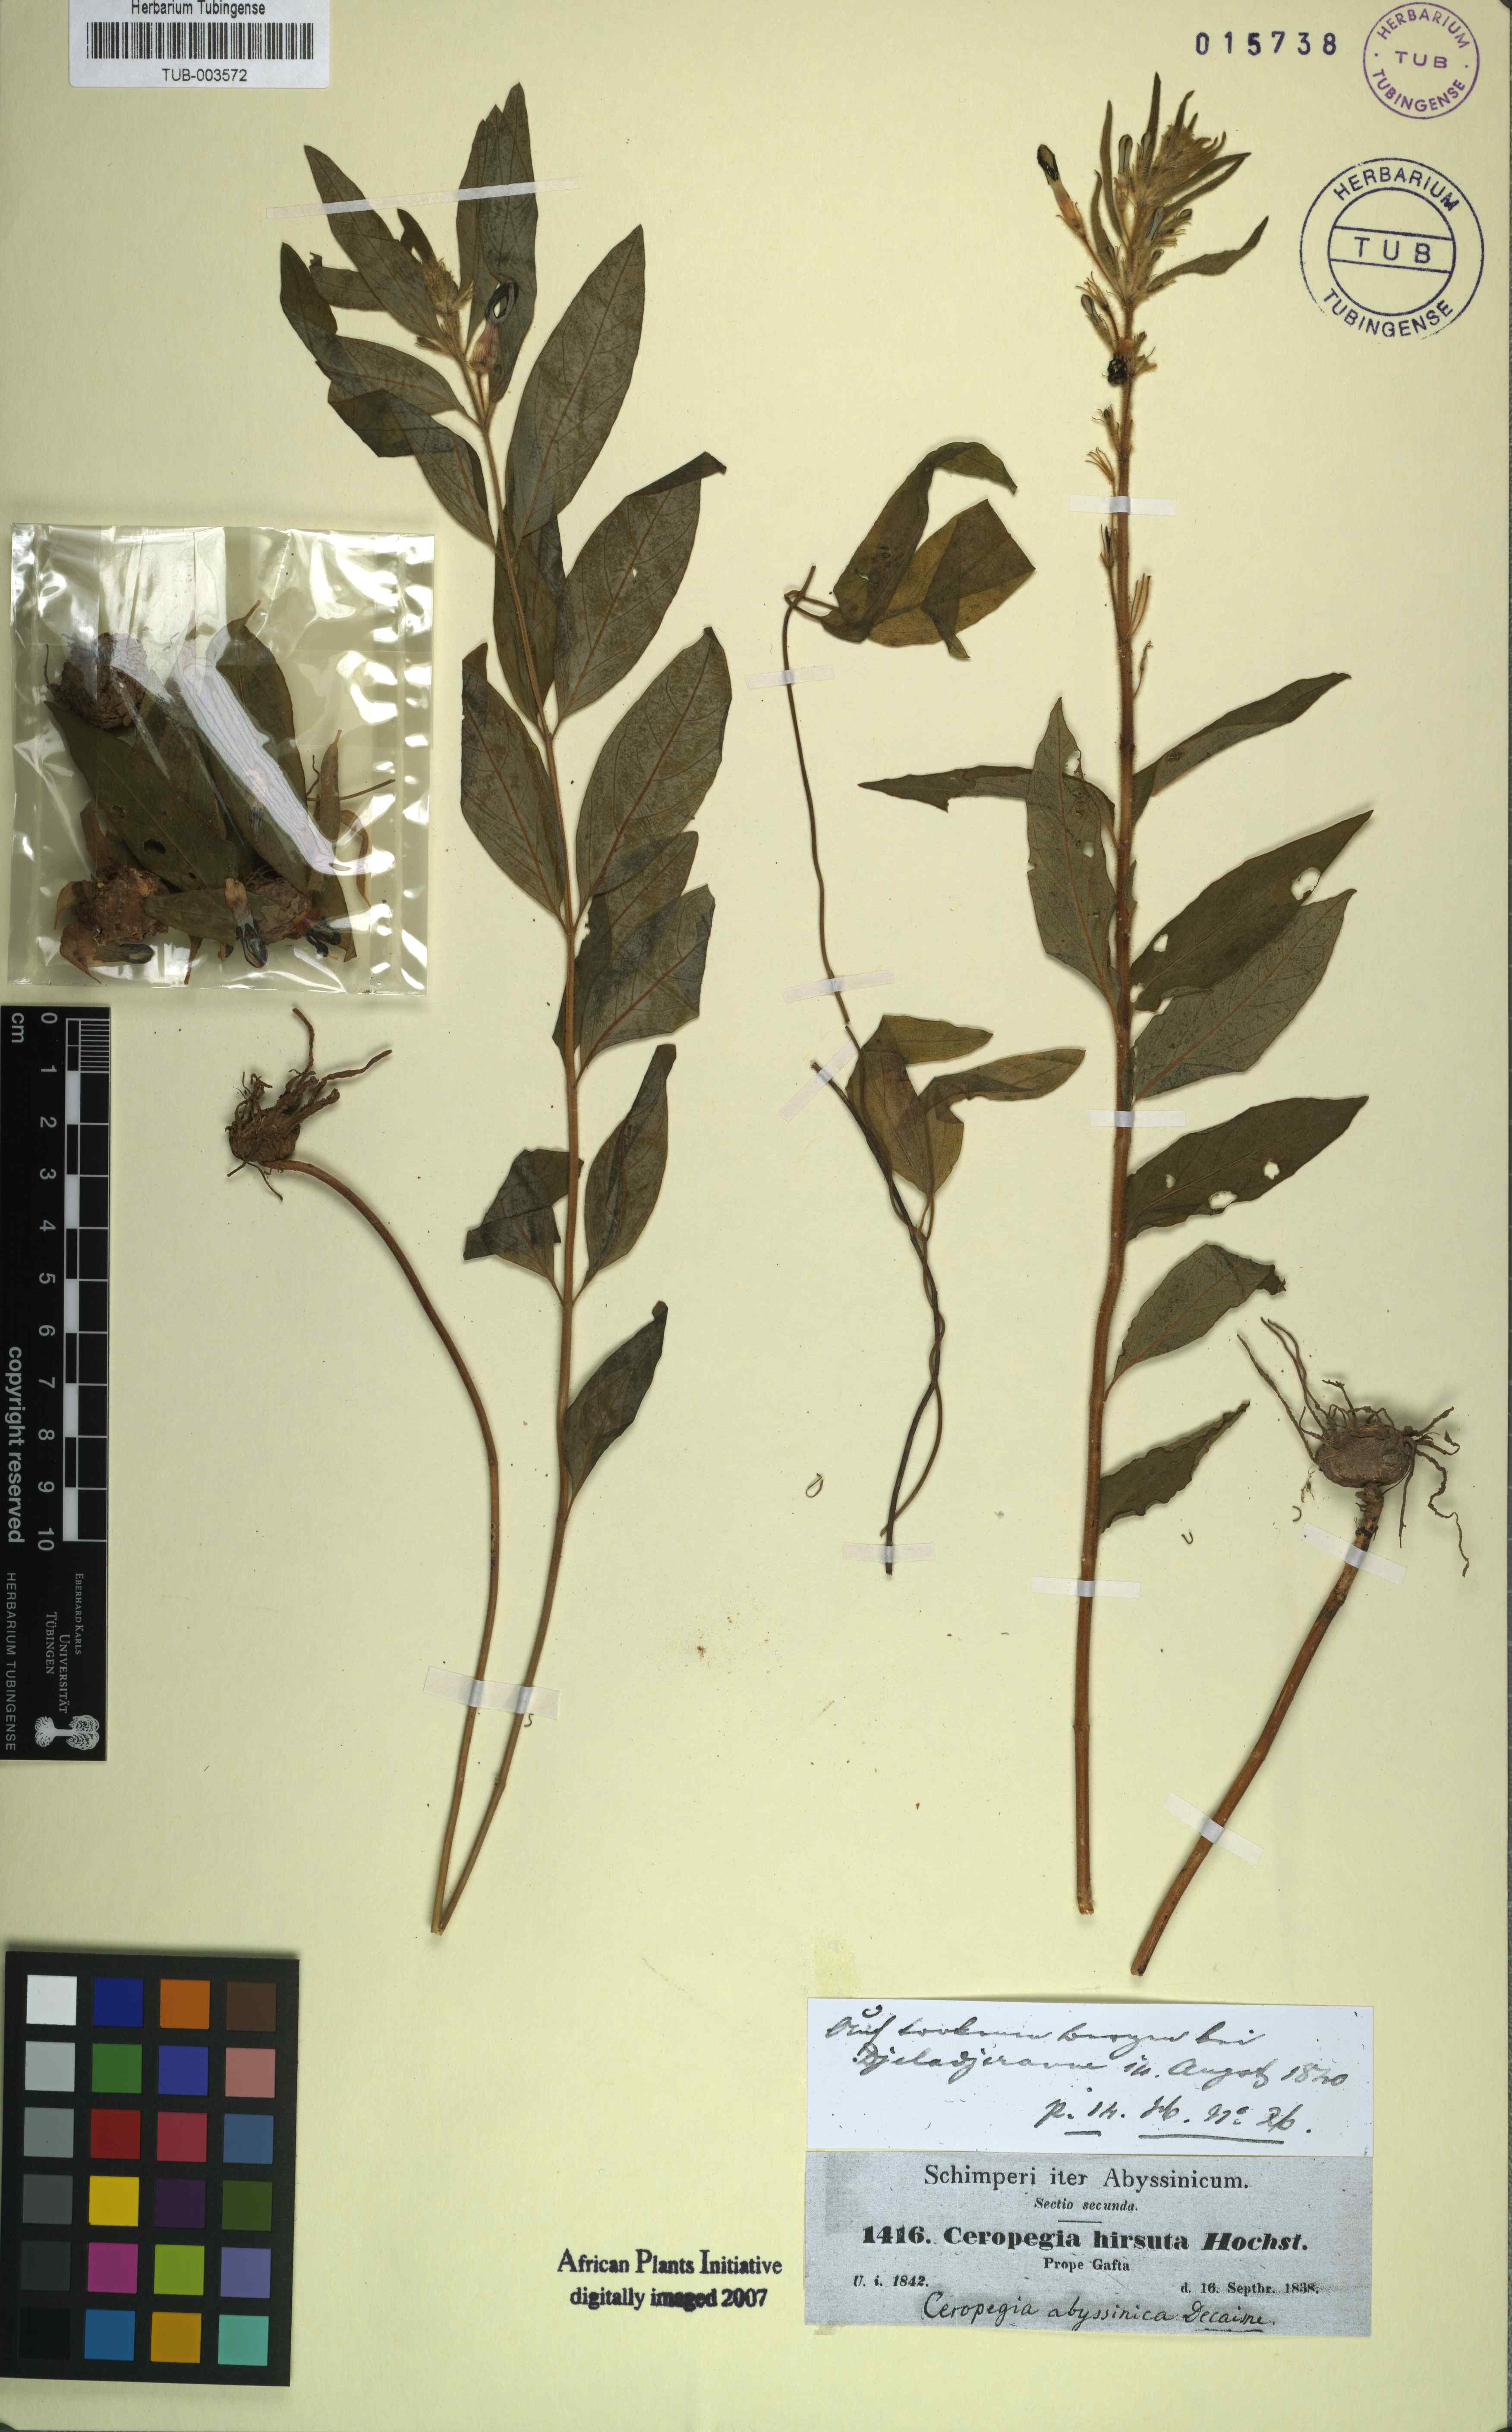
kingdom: Plantae
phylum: Tracheophyta
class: Magnoliopsida
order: Gentianales
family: Apocynaceae
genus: Ceropegia
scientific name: Ceropegia abyssinica
